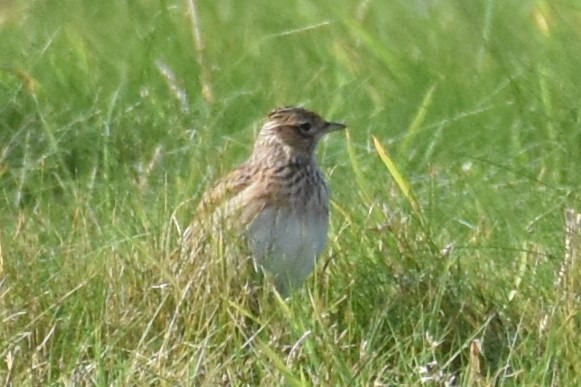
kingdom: Animalia
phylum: Chordata
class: Aves
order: Passeriformes
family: Alaudidae
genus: Alauda
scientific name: Alauda arvensis
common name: Sanglærke
